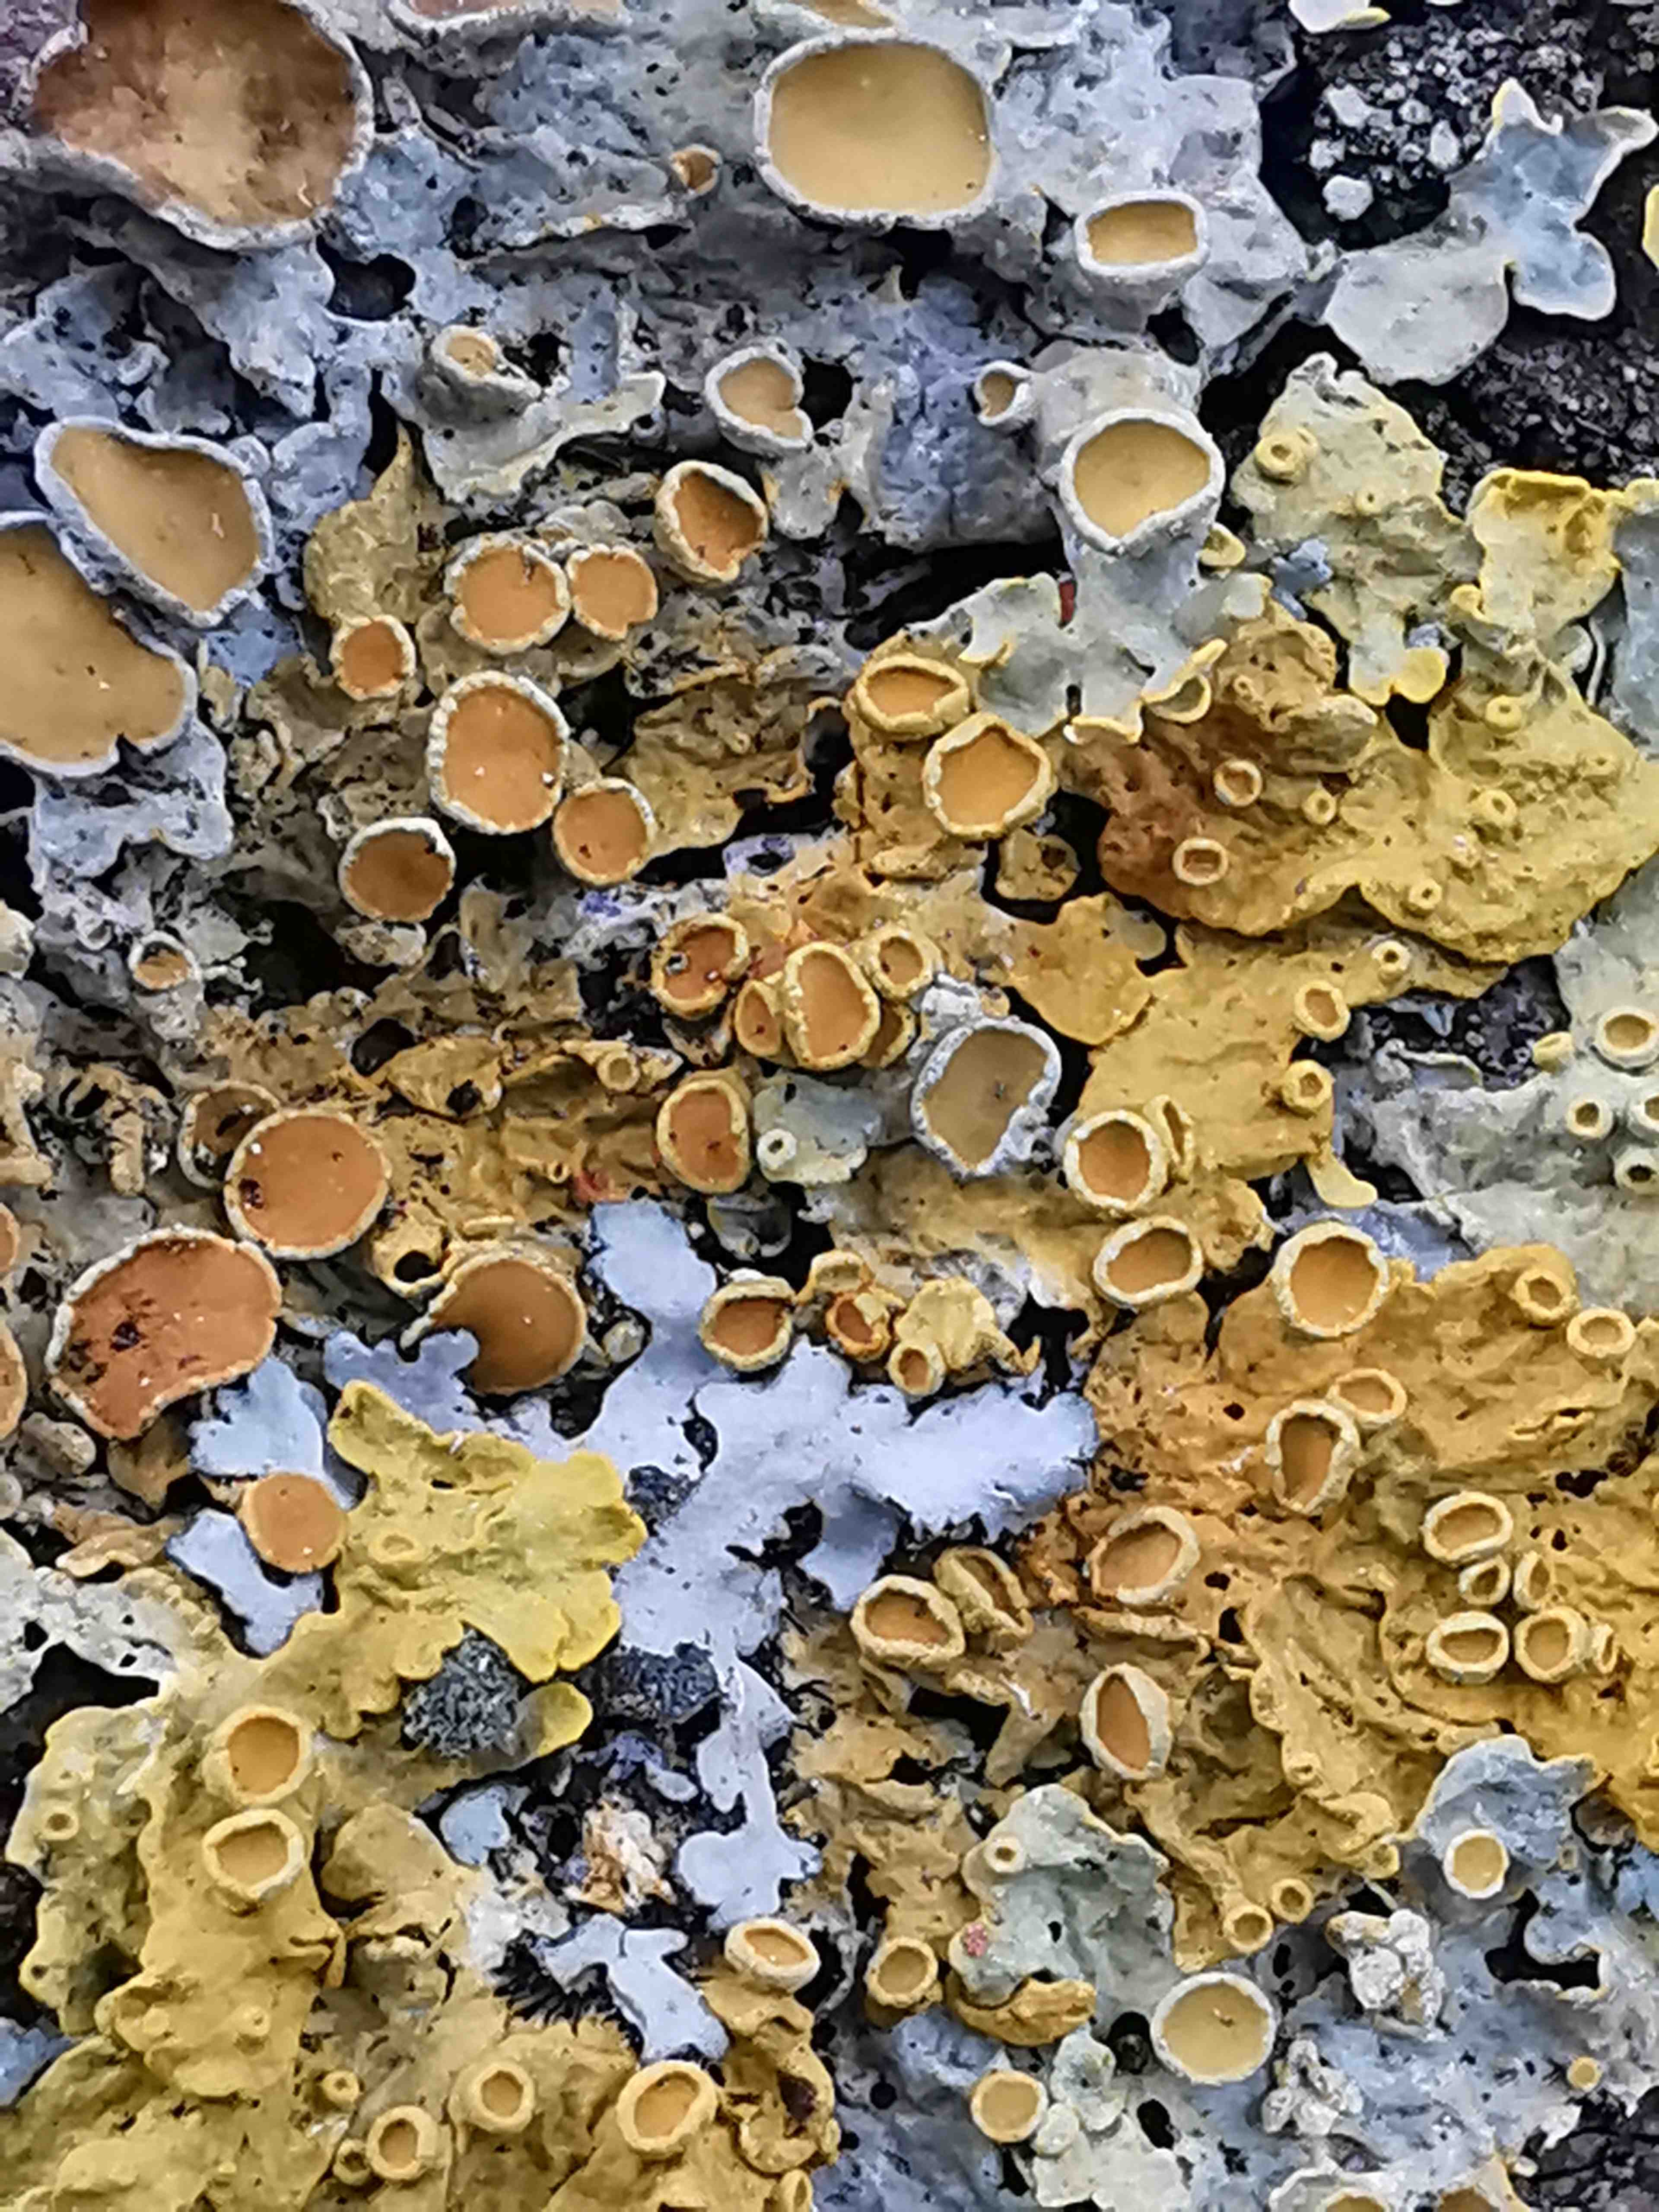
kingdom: Fungi
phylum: Ascomycota
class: Lecanoromycetes
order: Teloschistales
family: Teloschistaceae
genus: Xanthoria
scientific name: Xanthoria parietina
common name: almindelig væggelav
